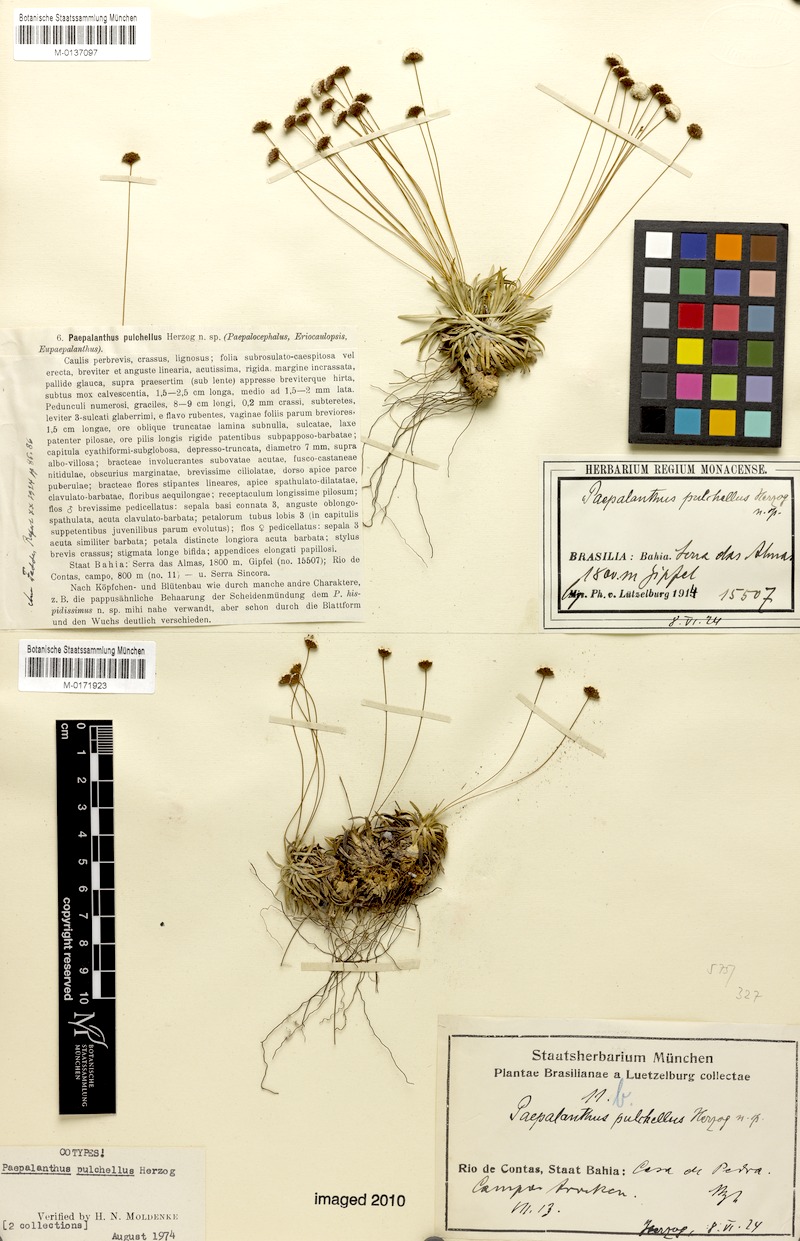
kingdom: Plantae
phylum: Tracheophyta
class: Liliopsida
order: Poales
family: Eriocaulaceae
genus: Paepalanthus
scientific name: Paepalanthus pulchellus
